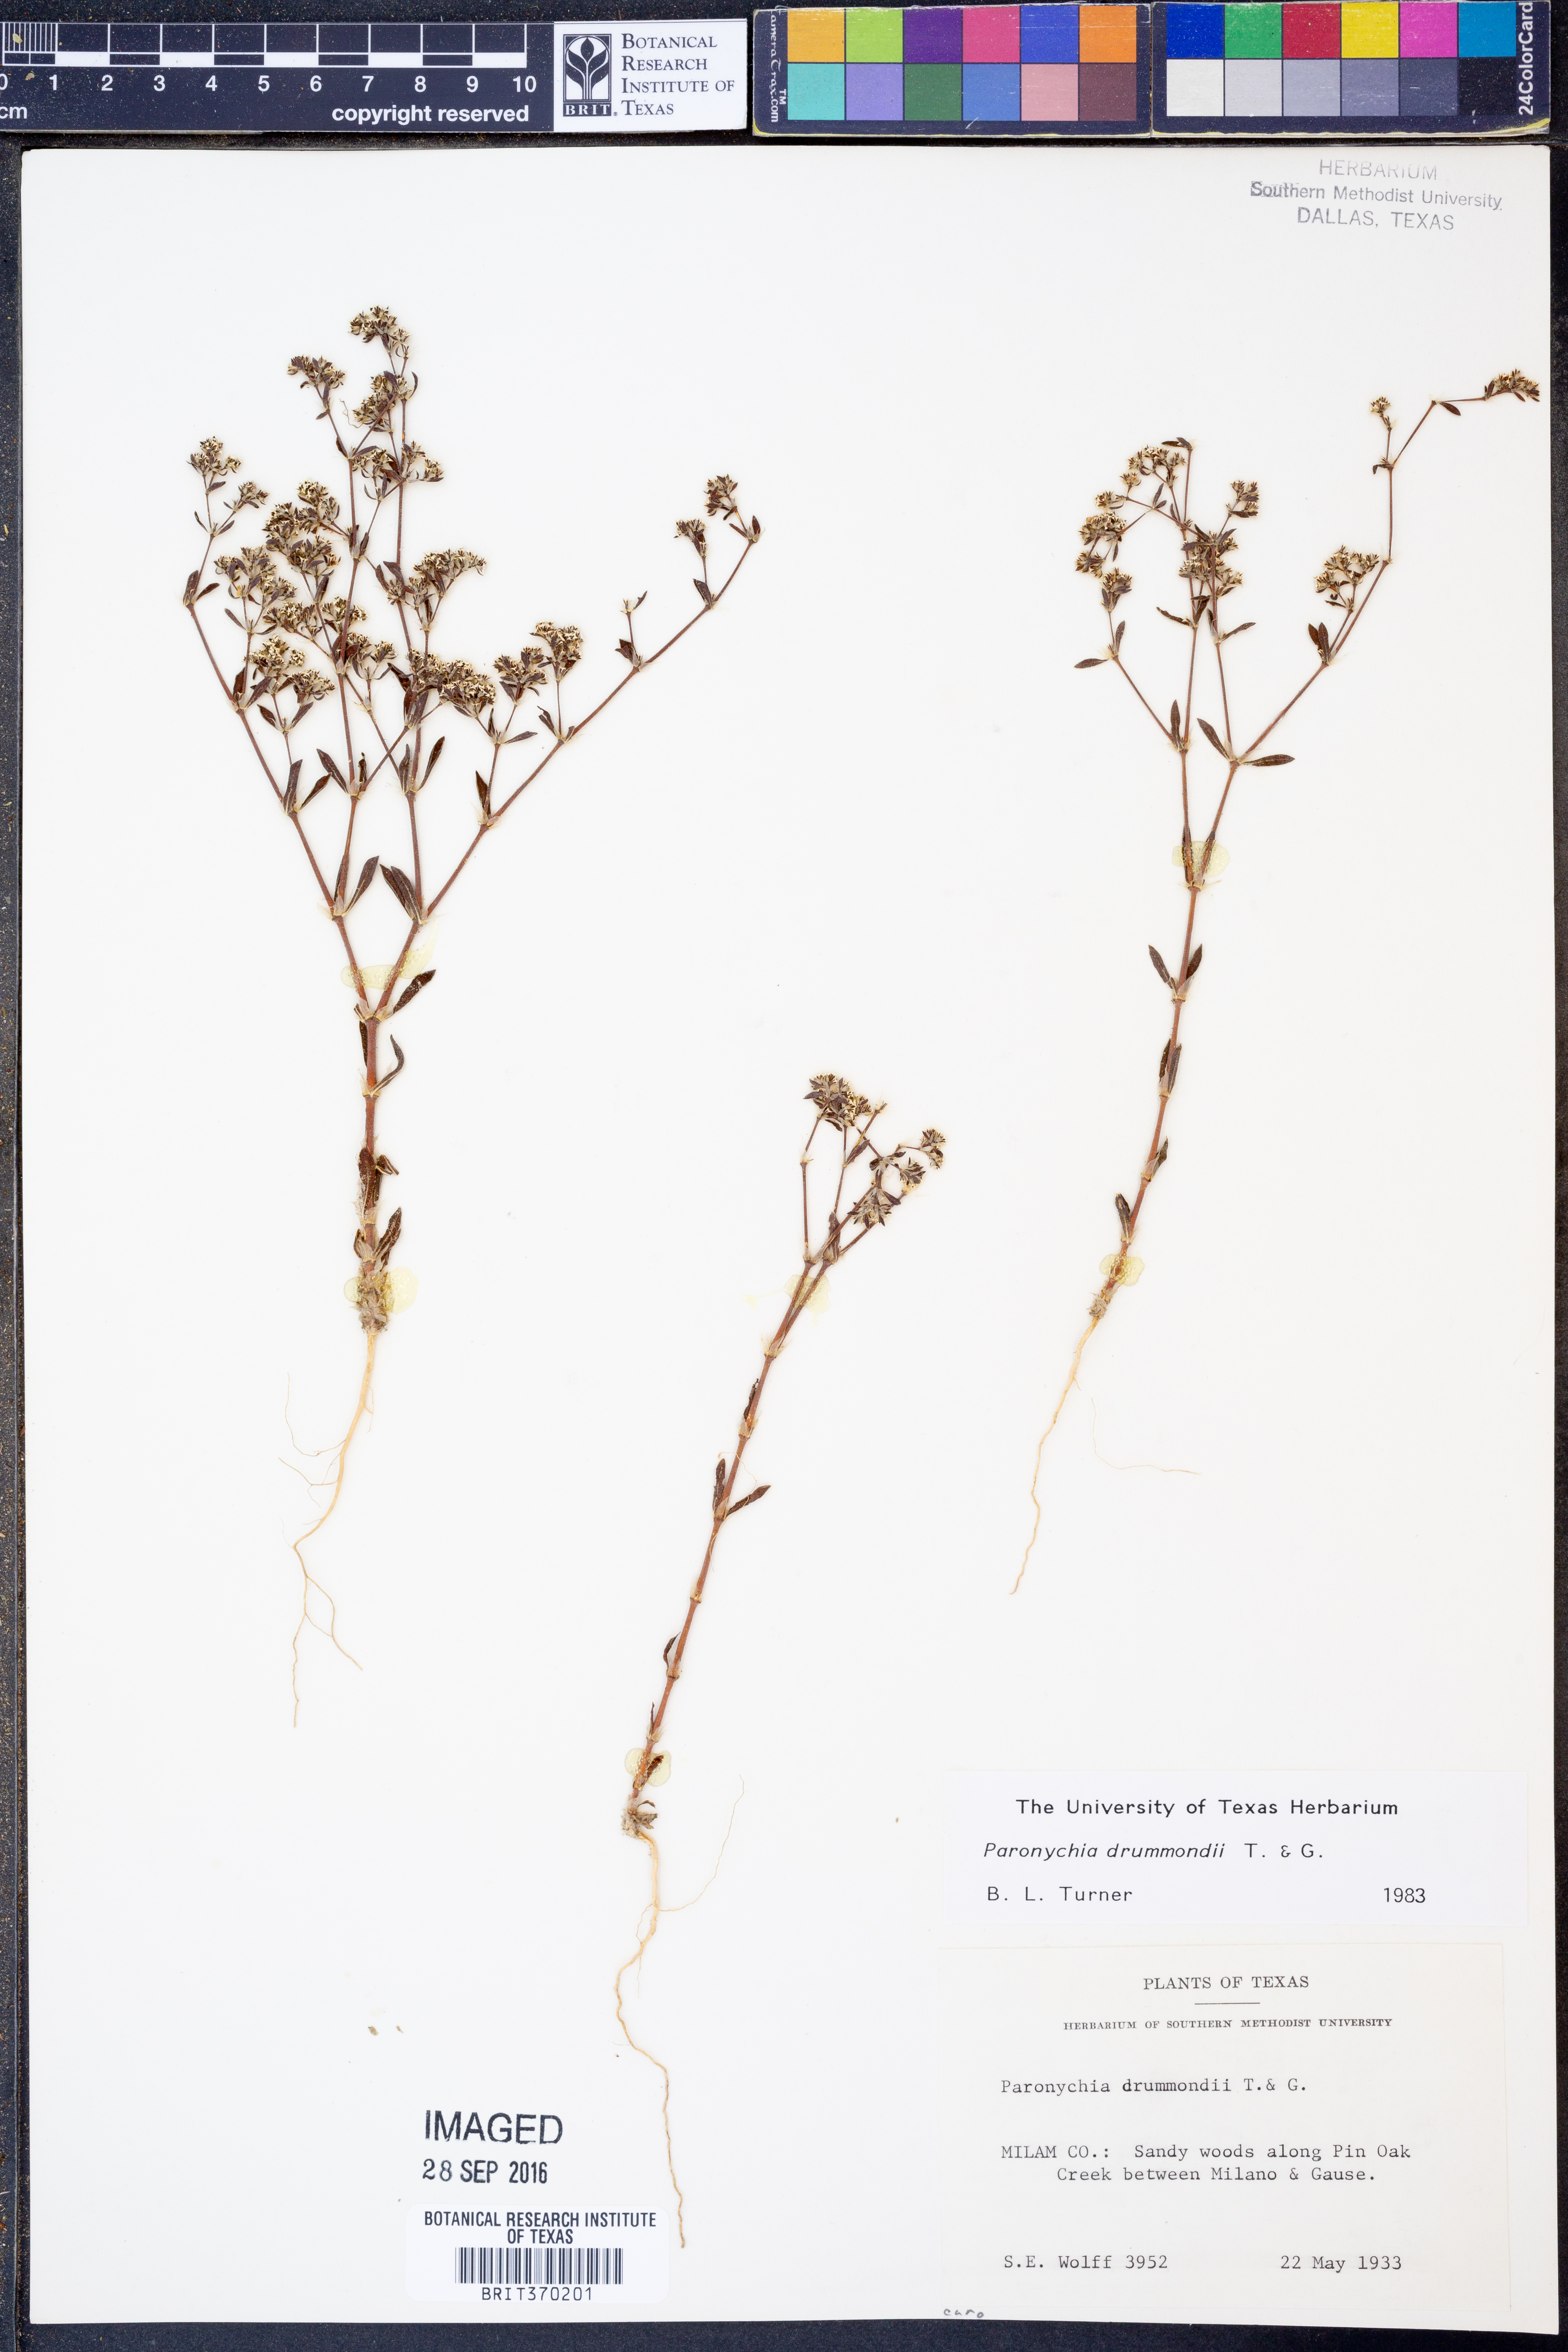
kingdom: Plantae
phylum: Tracheophyta
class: Magnoliopsida
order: Caryophyllales
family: Caryophyllaceae
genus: Paronychia
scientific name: Paronychia drummondii
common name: Drummond's nailwort
